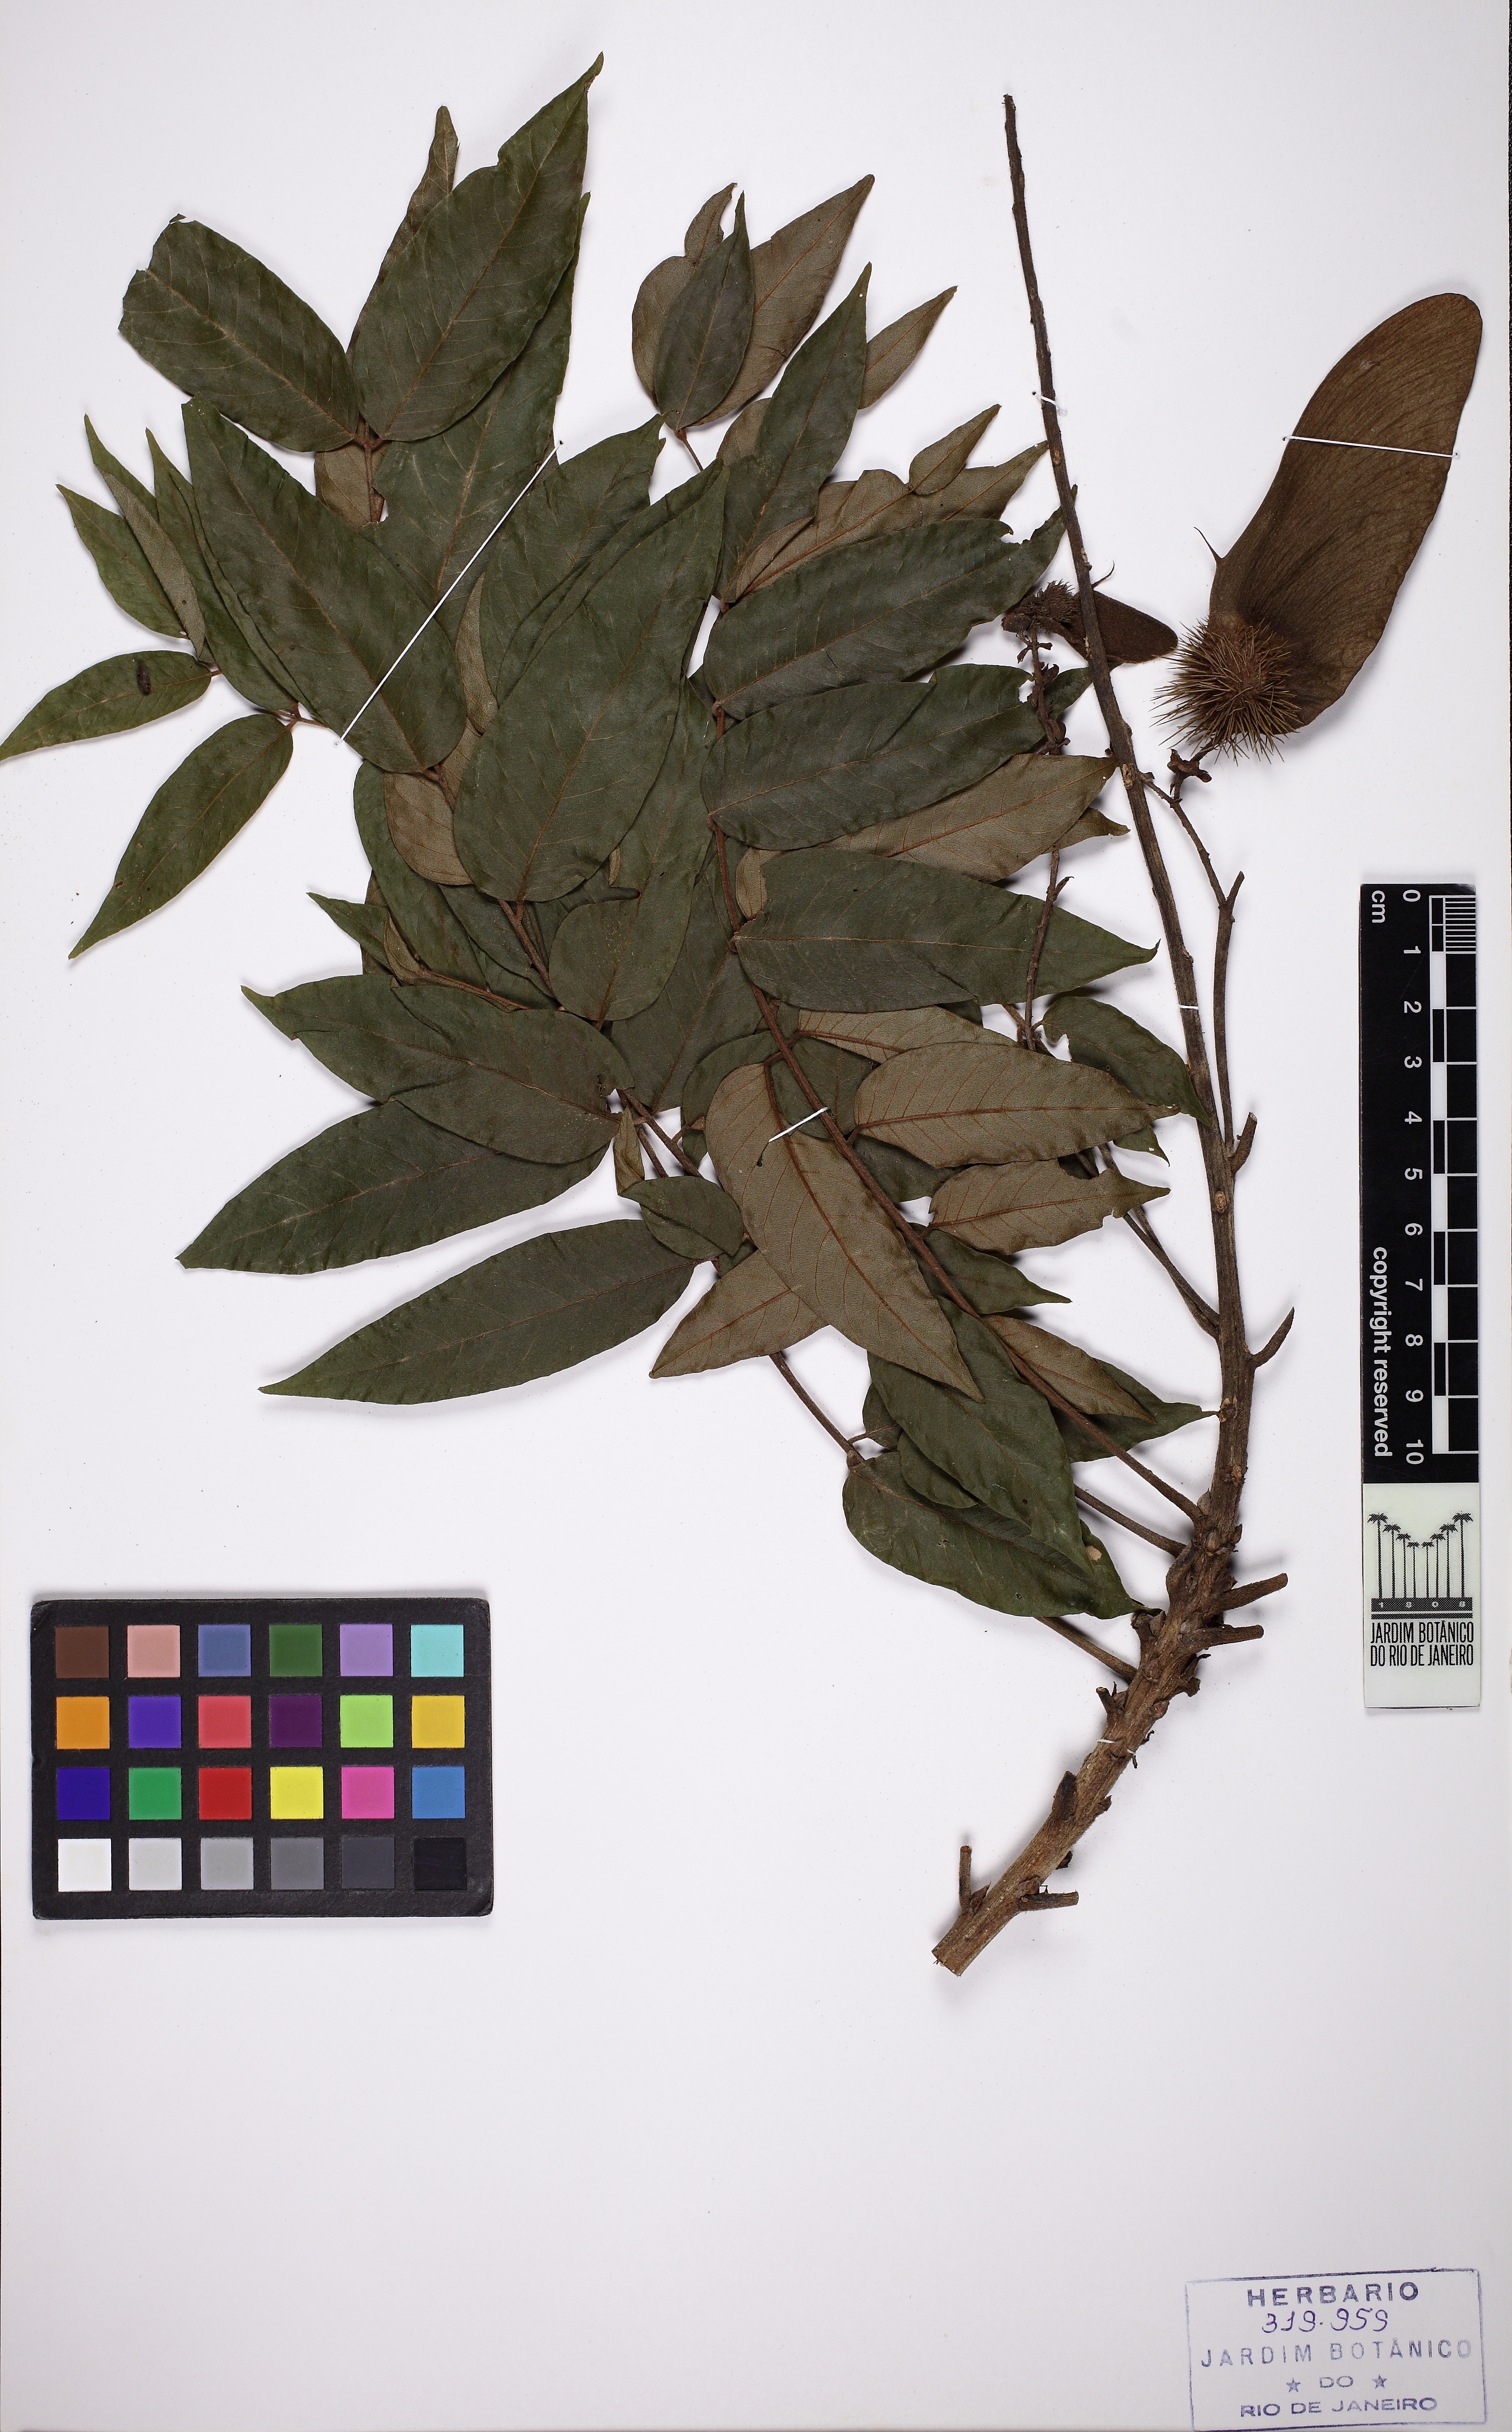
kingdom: Plantae
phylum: Tracheophyta
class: Magnoliopsida
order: Fabales
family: Fabaceae
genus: Centrolobium
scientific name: Centrolobium microchaete
